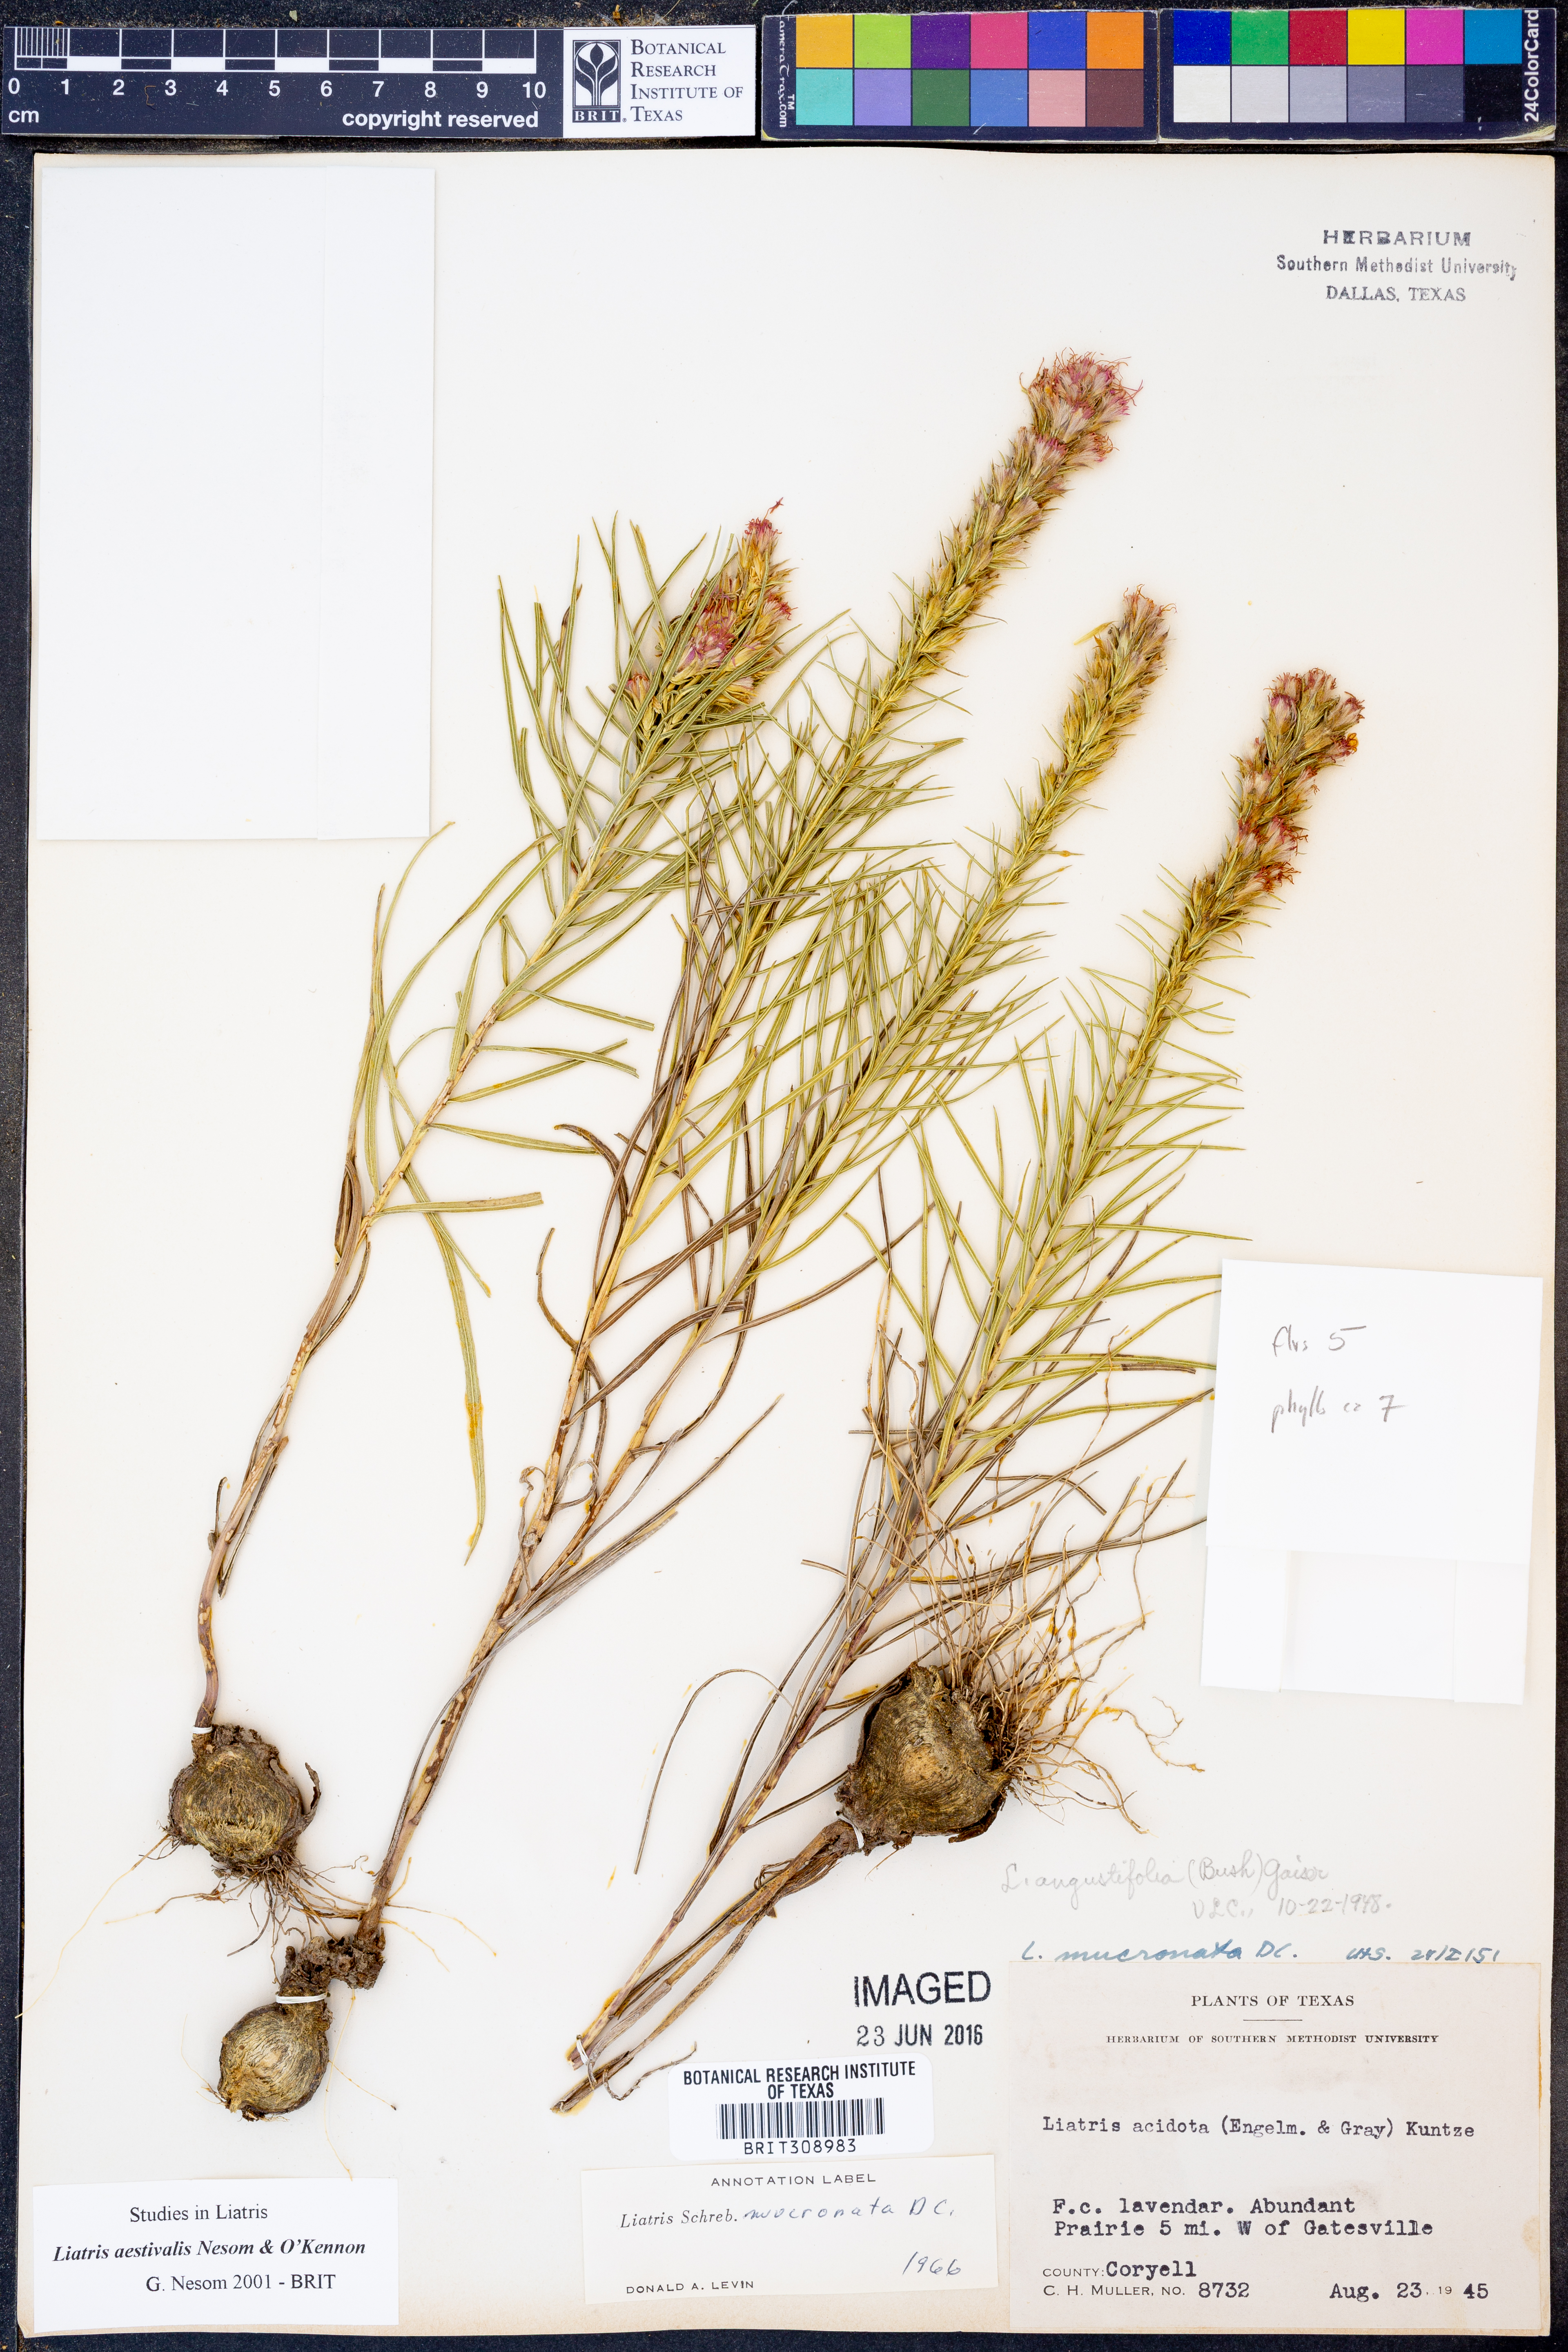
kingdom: Plantae
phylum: Tracheophyta
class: Magnoliopsida
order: Asterales
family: Asteraceae
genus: Liatris
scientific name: Liatris aestivalis
